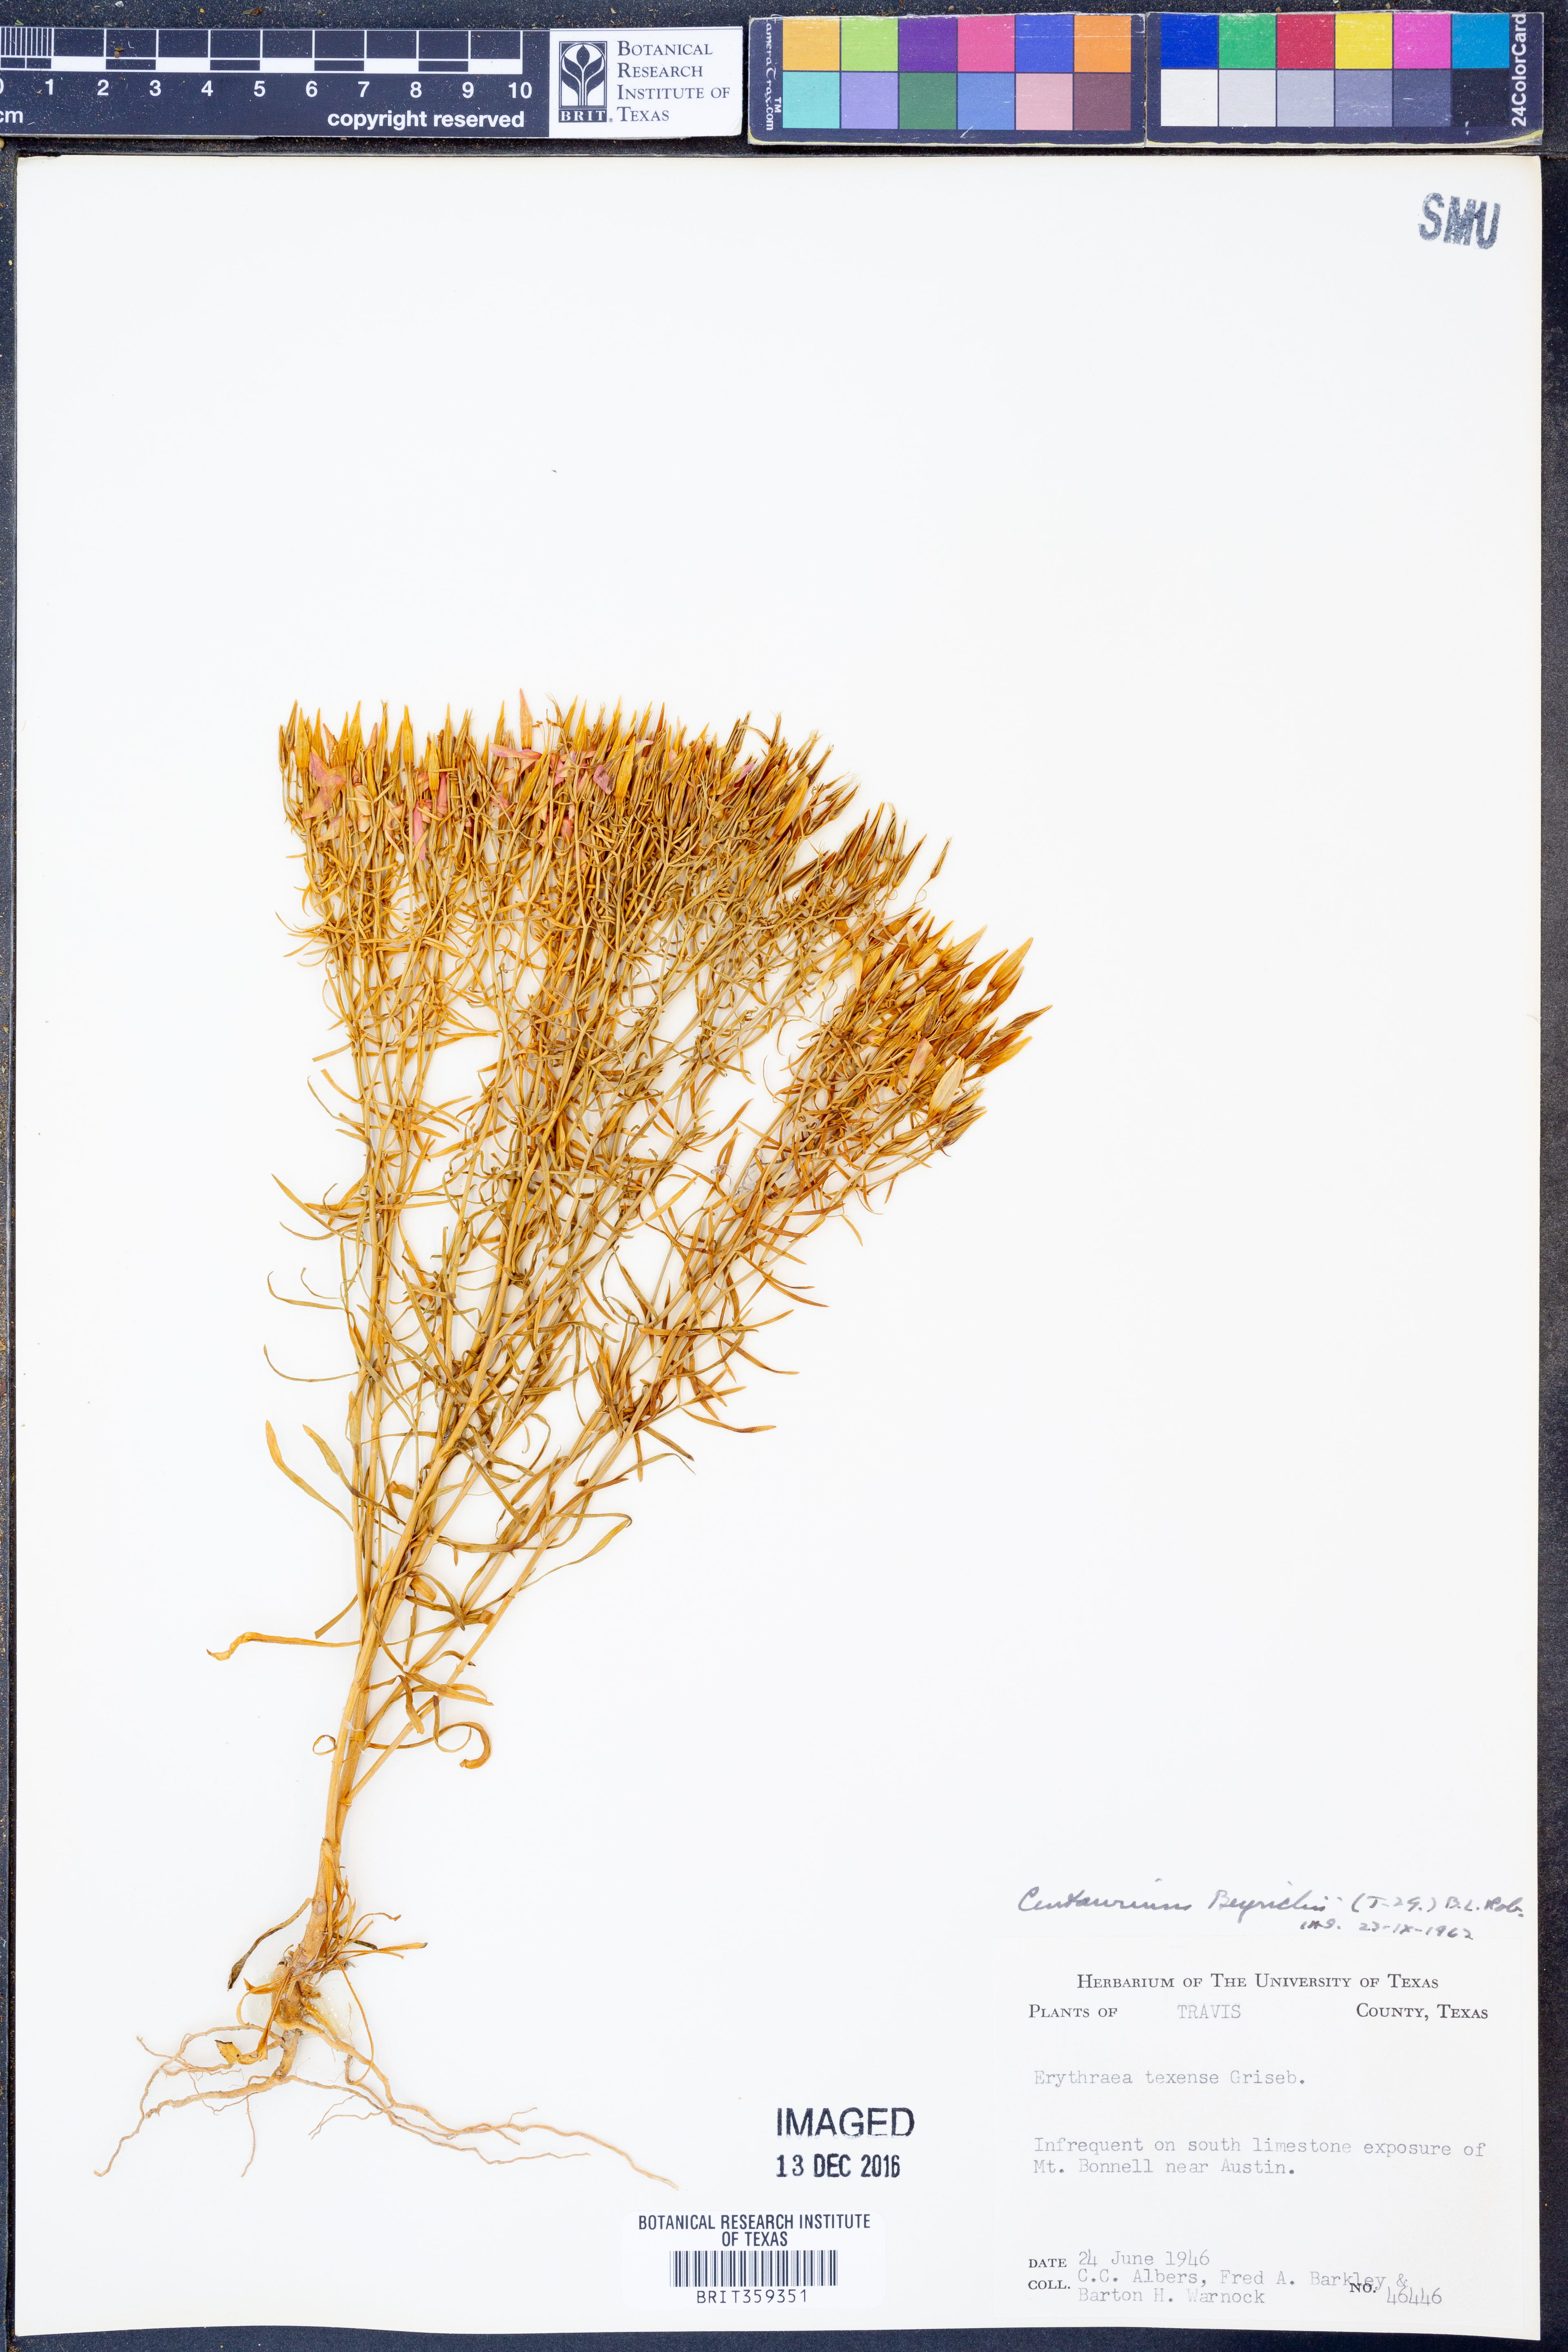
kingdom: Plantae
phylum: Tracheophyta
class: Magnoliopsida
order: Gentianales
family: Gentianaceae
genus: Zeltnera
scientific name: Zeltnera beyrichii
